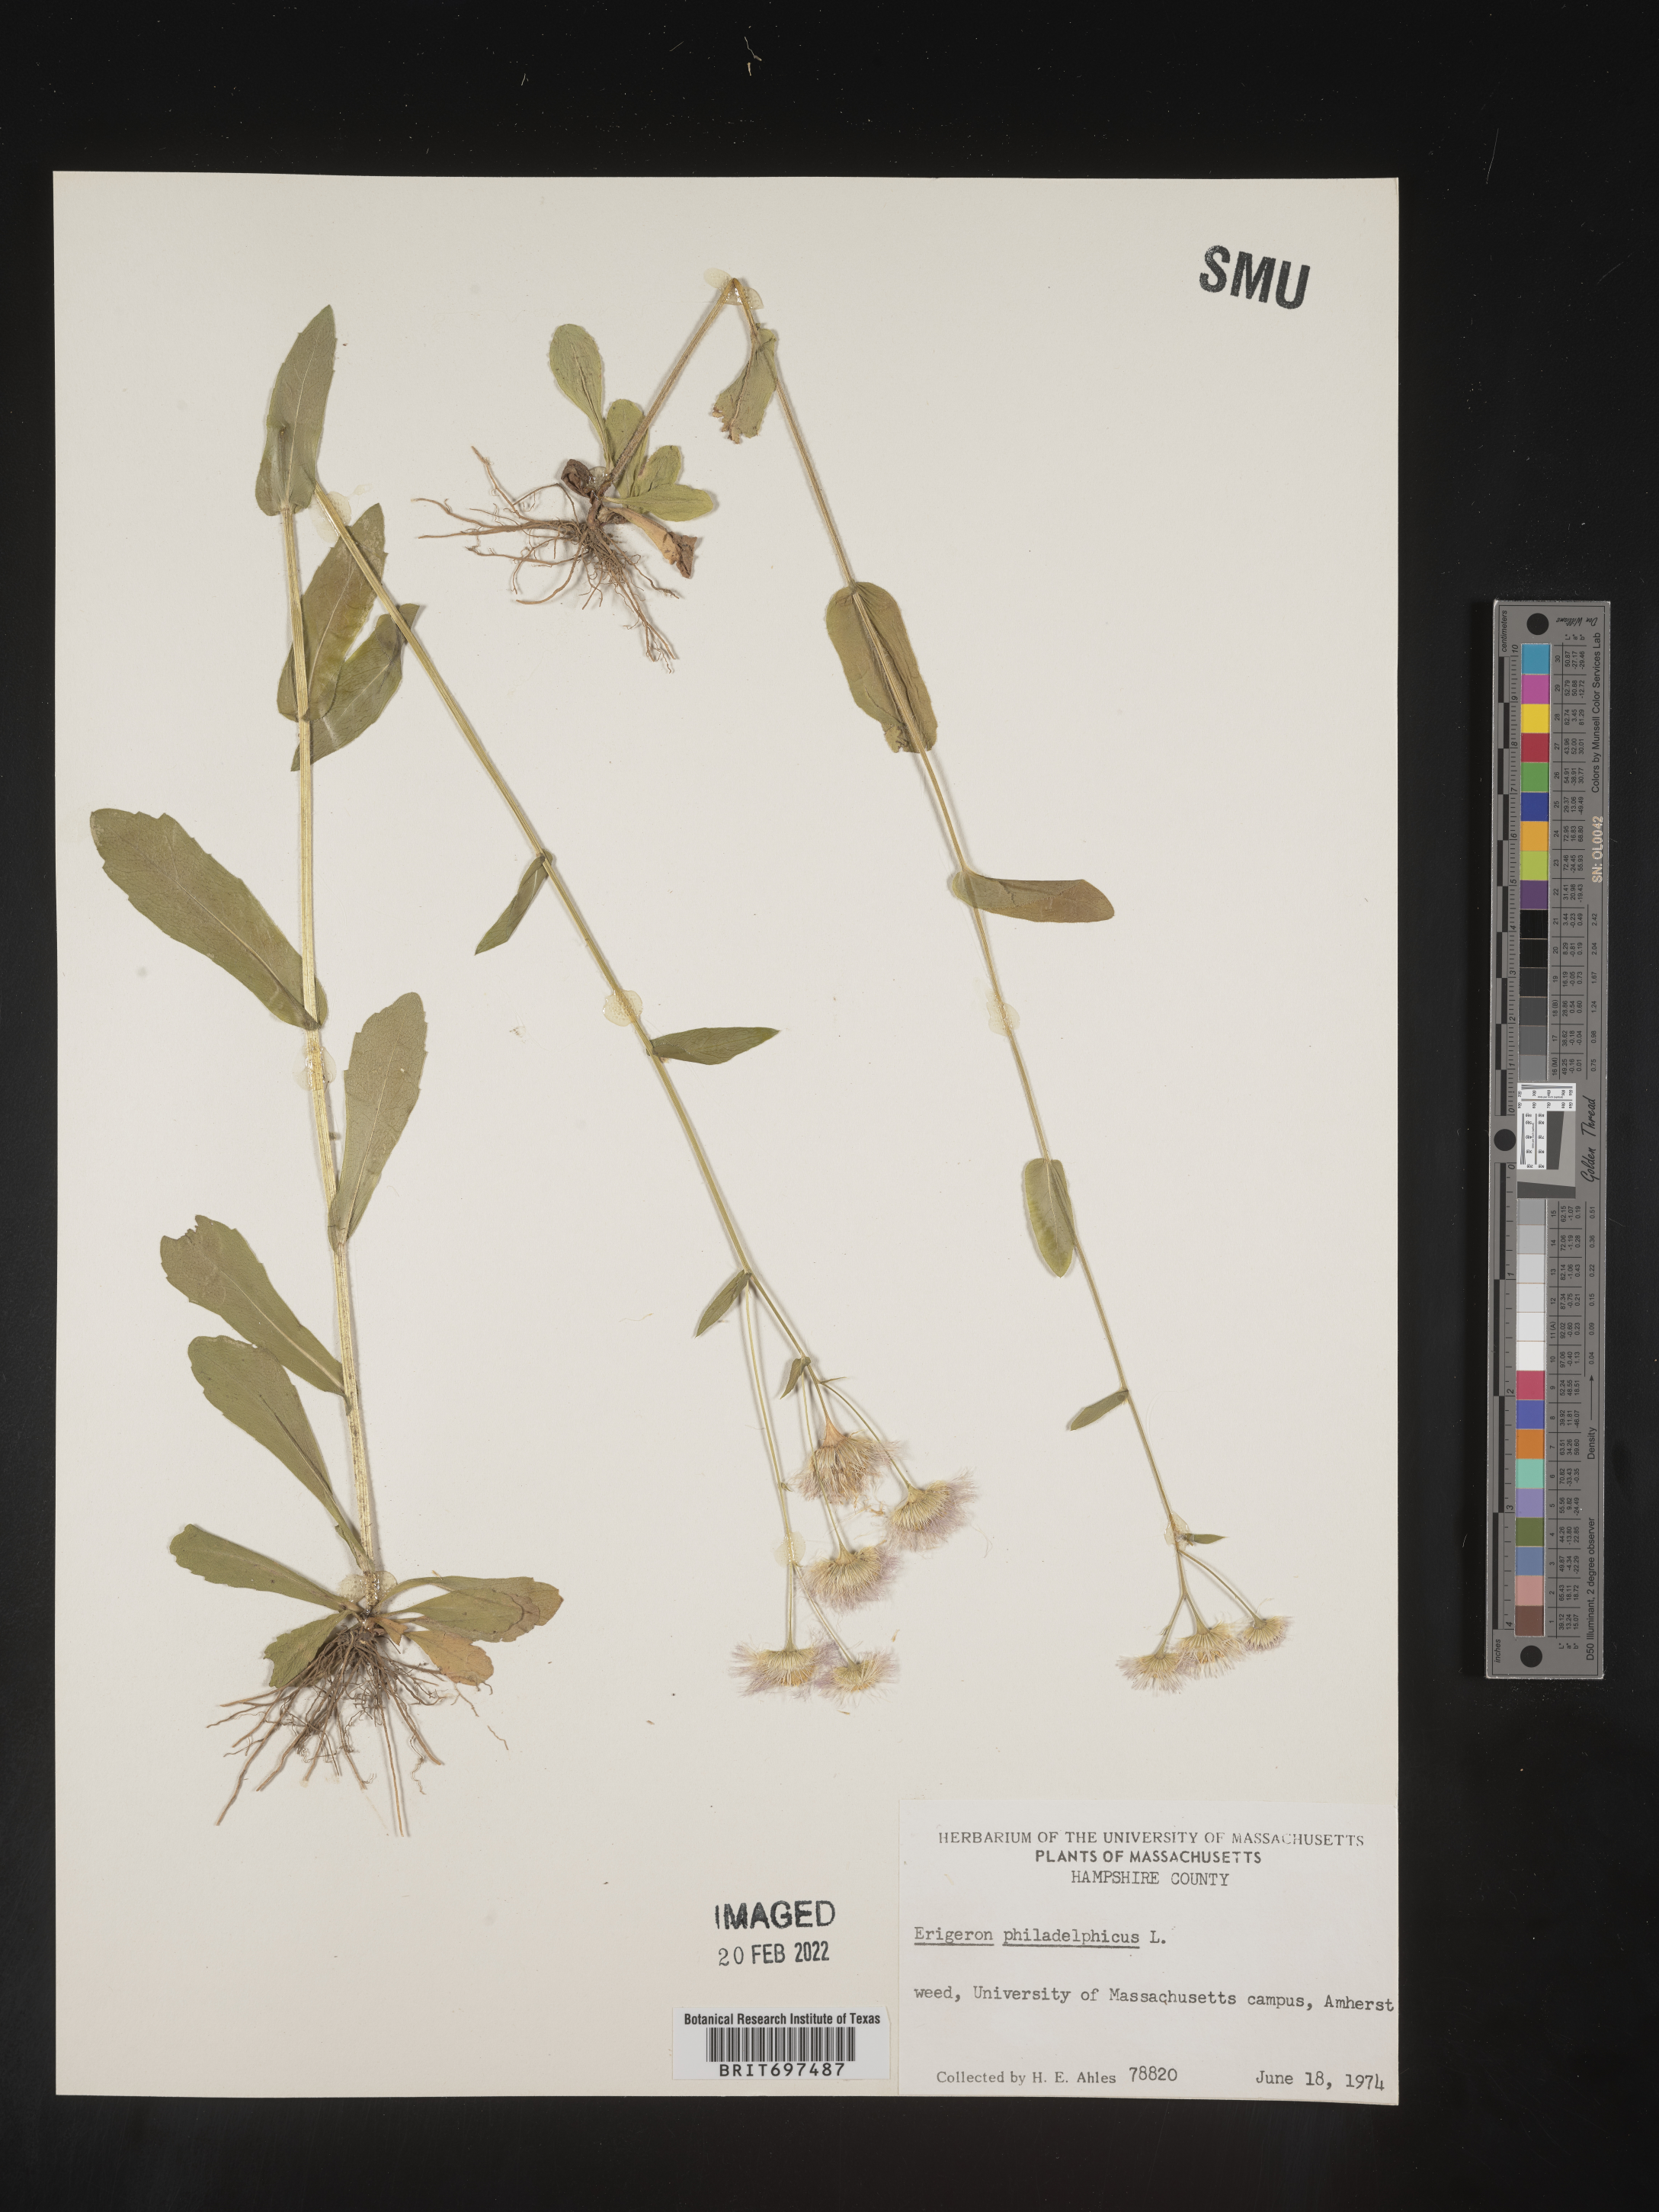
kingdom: Plantae
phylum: Tracheophyta
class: Magnoliopsida
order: Asterales
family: Asteraceae
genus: Erigeron
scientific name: Erigeron philadelphicus
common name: Robin's-plantain
